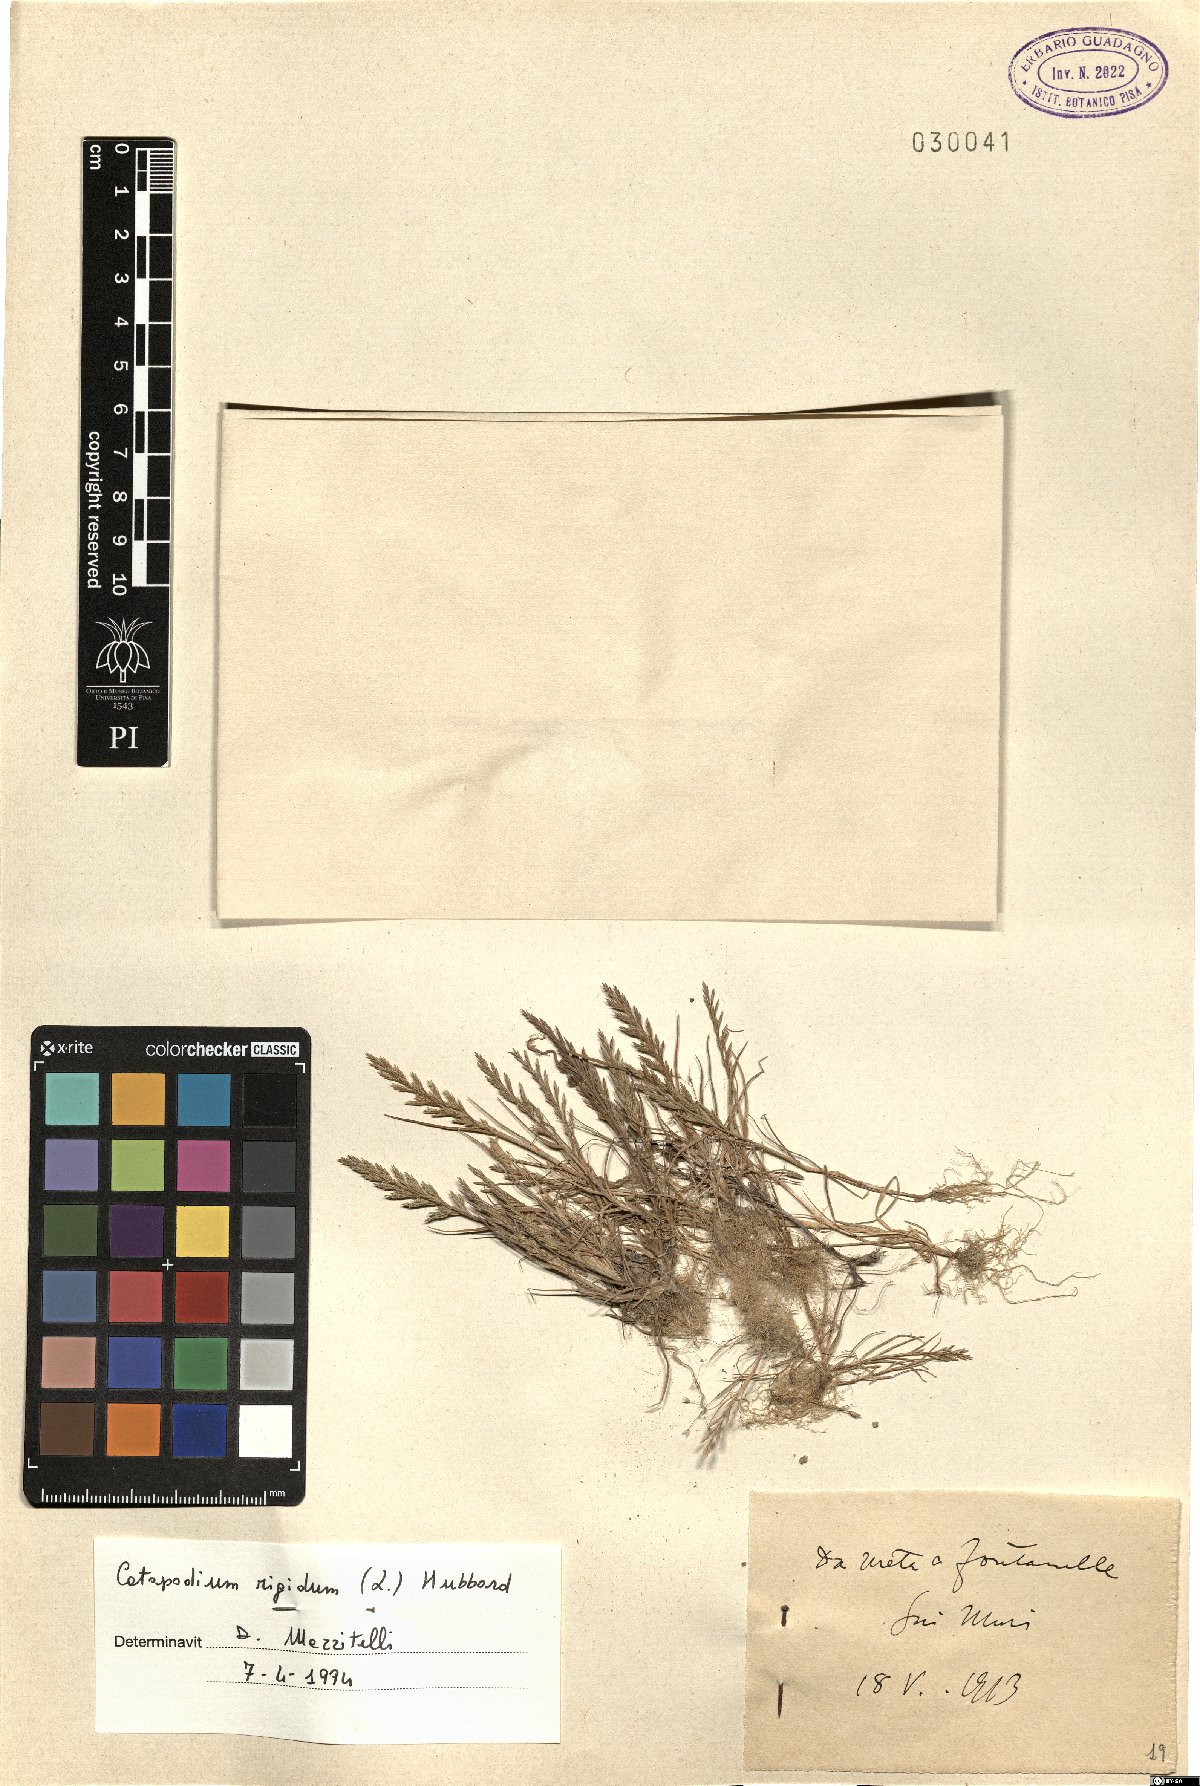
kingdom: Plantae
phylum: Tracheophyta
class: Liliopsida
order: Poales
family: Poaceae
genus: Catapodium
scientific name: Catapodium rigidum
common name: Fern-grass
